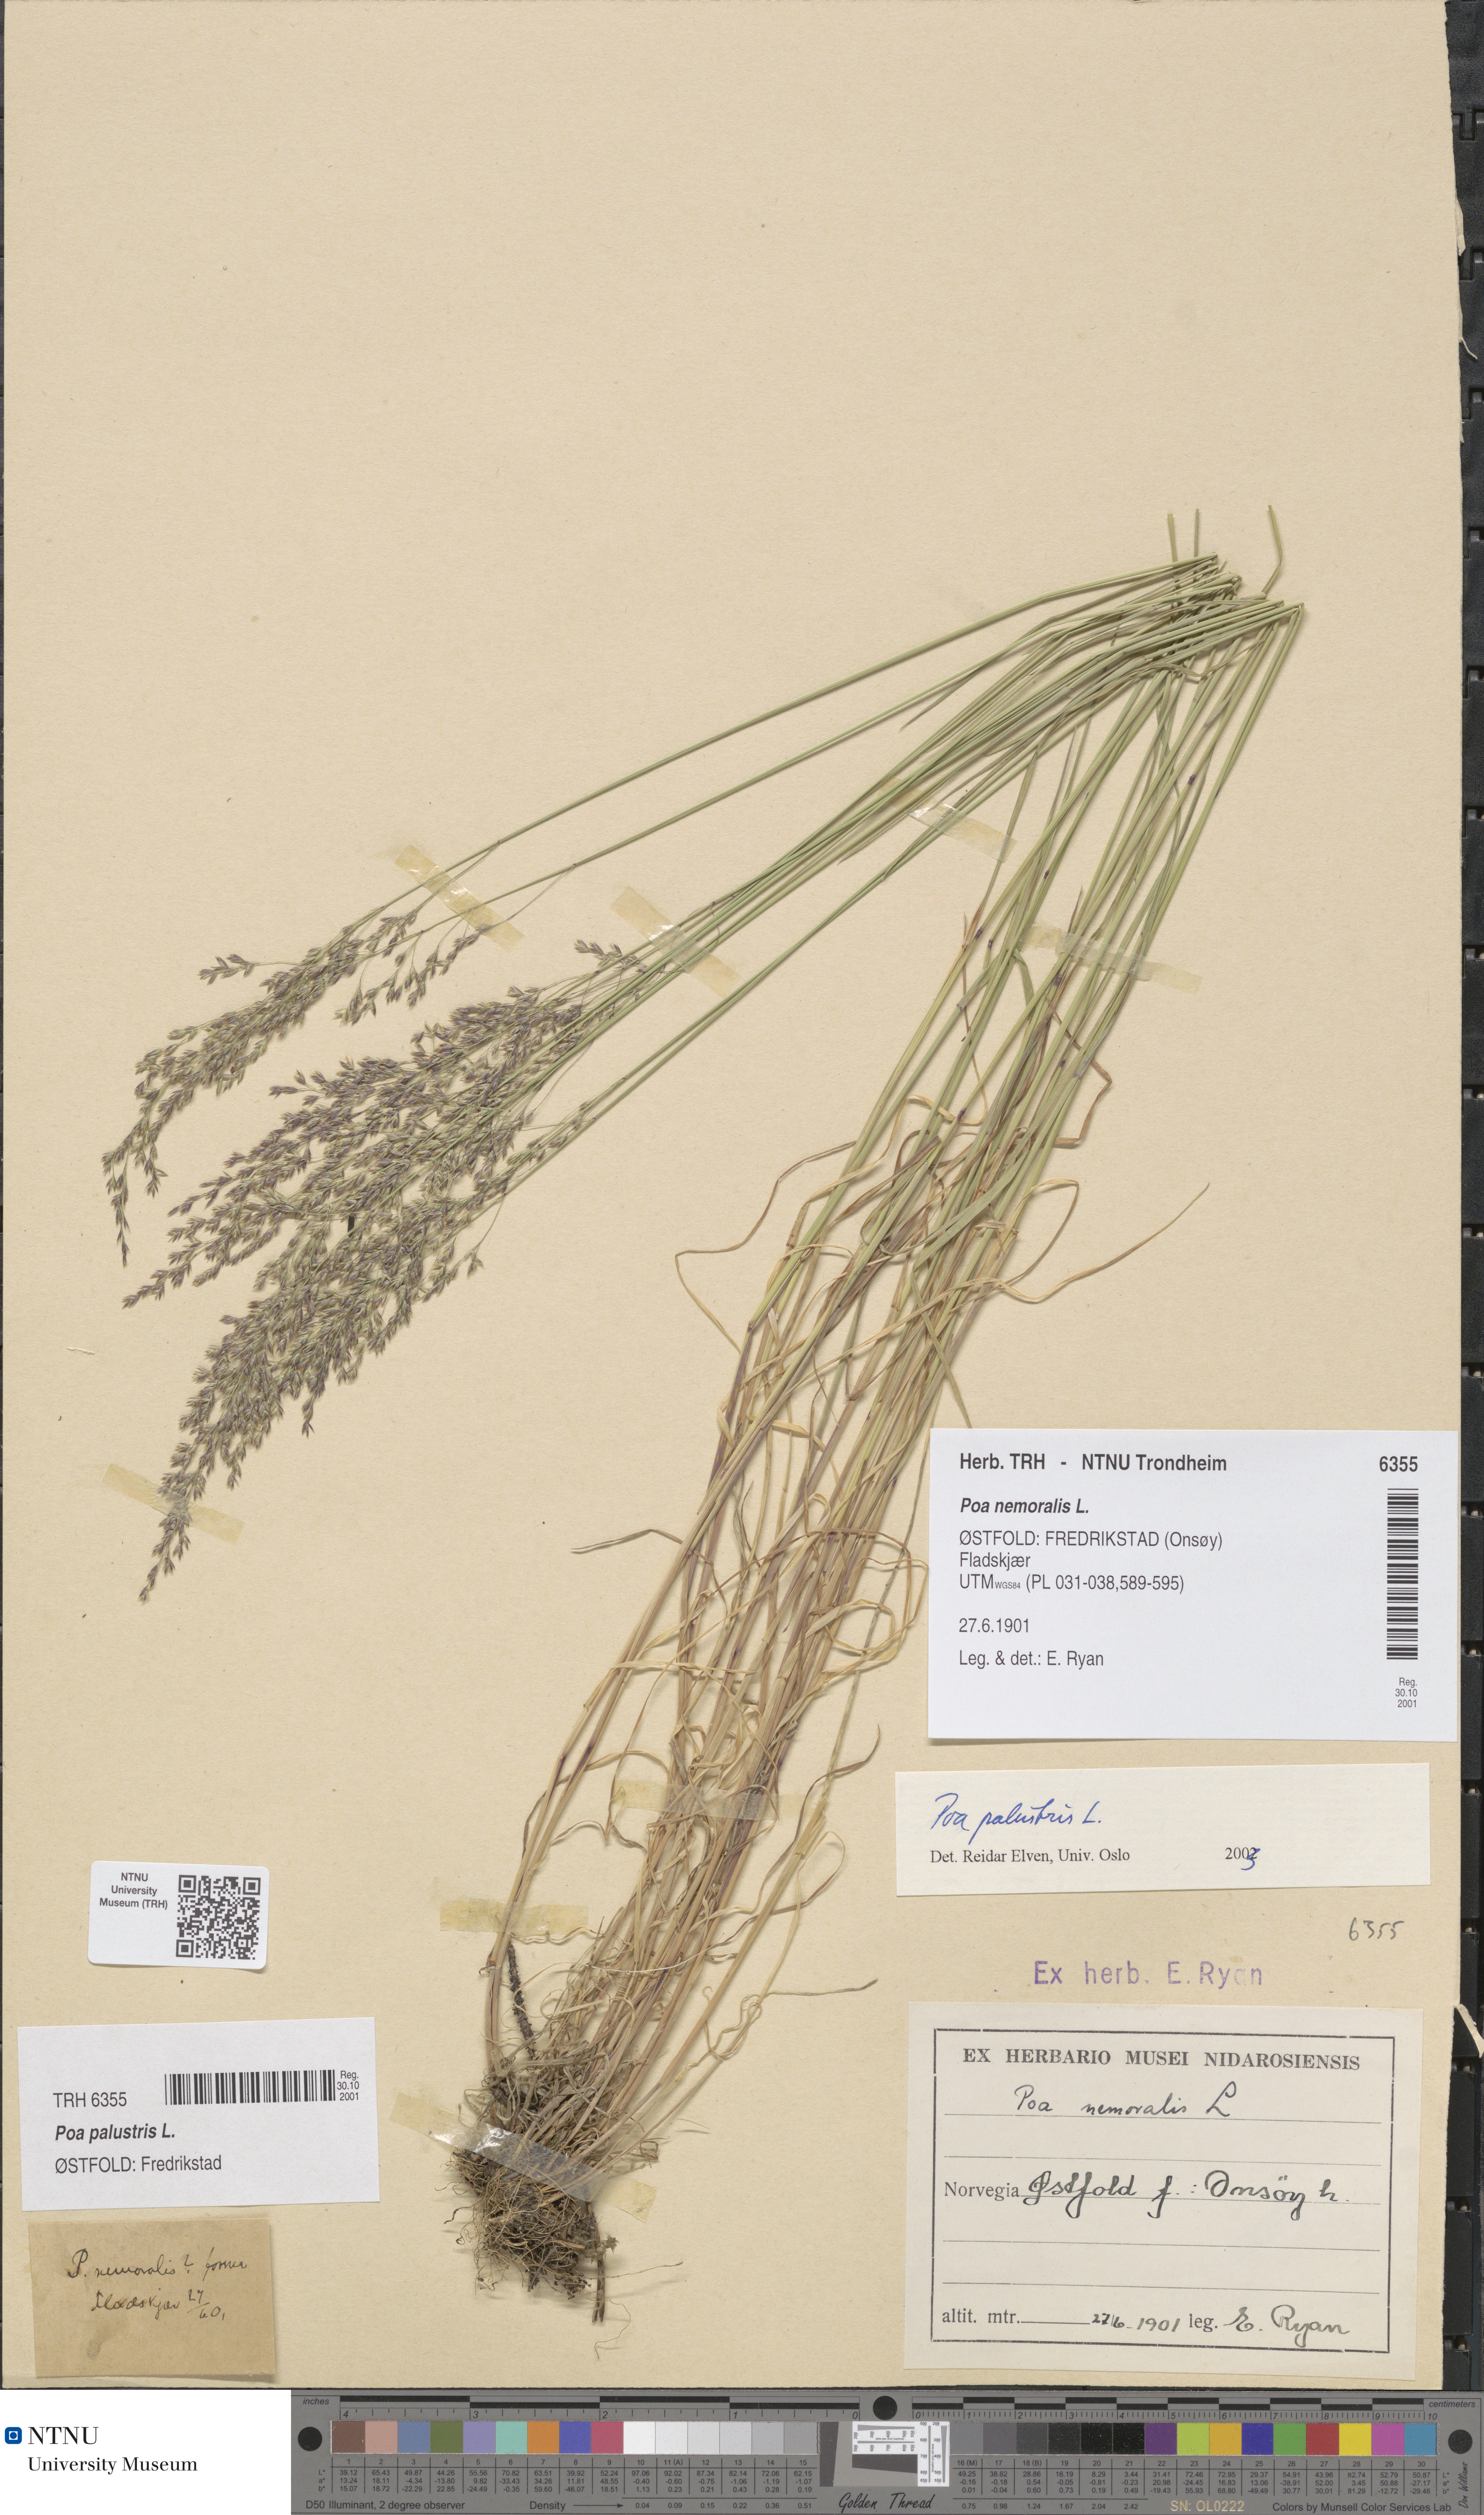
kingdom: Plantae
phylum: Tracheophyta
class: Liliopsida
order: Poales
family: Poaceae
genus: Poa
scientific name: Poa palustris
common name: Swamp meadow-grass
